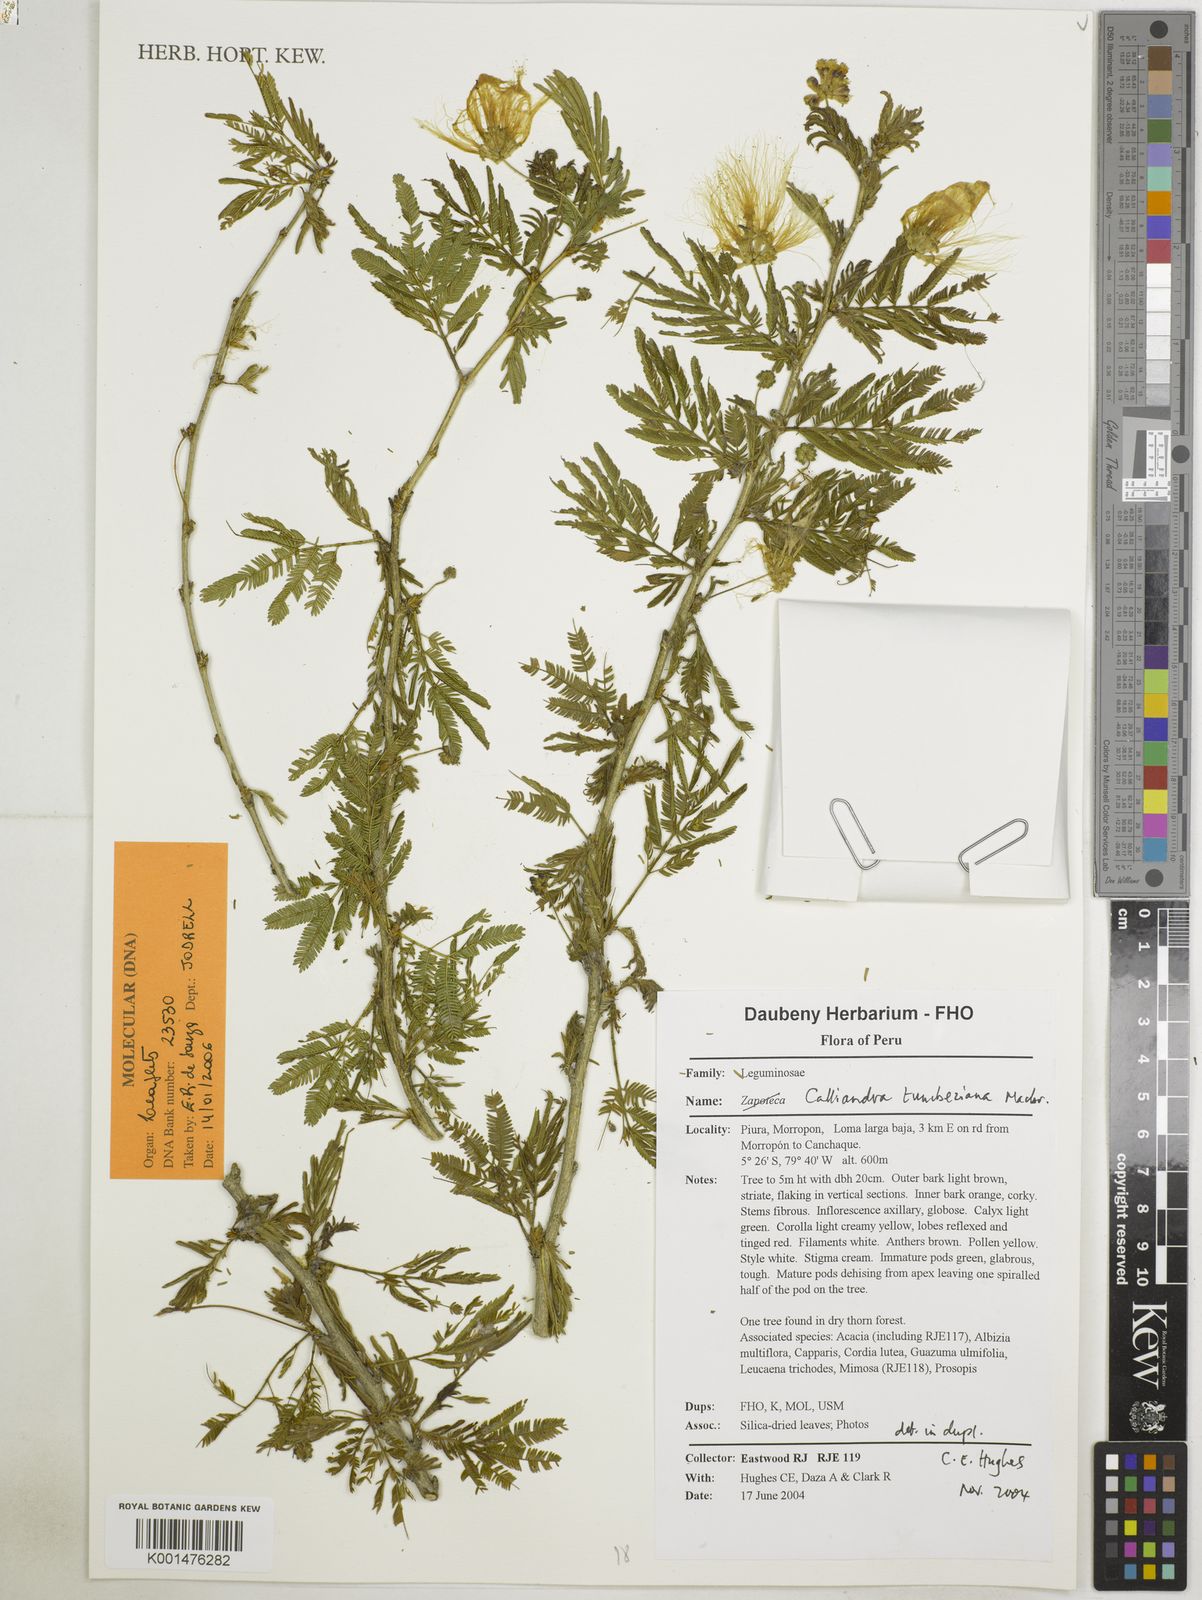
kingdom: Plantae
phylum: Tracheophyta
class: Magnoliopsida
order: Fabales
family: Fabaceae
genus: Calliandra
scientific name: Calliandra tumbeziana
